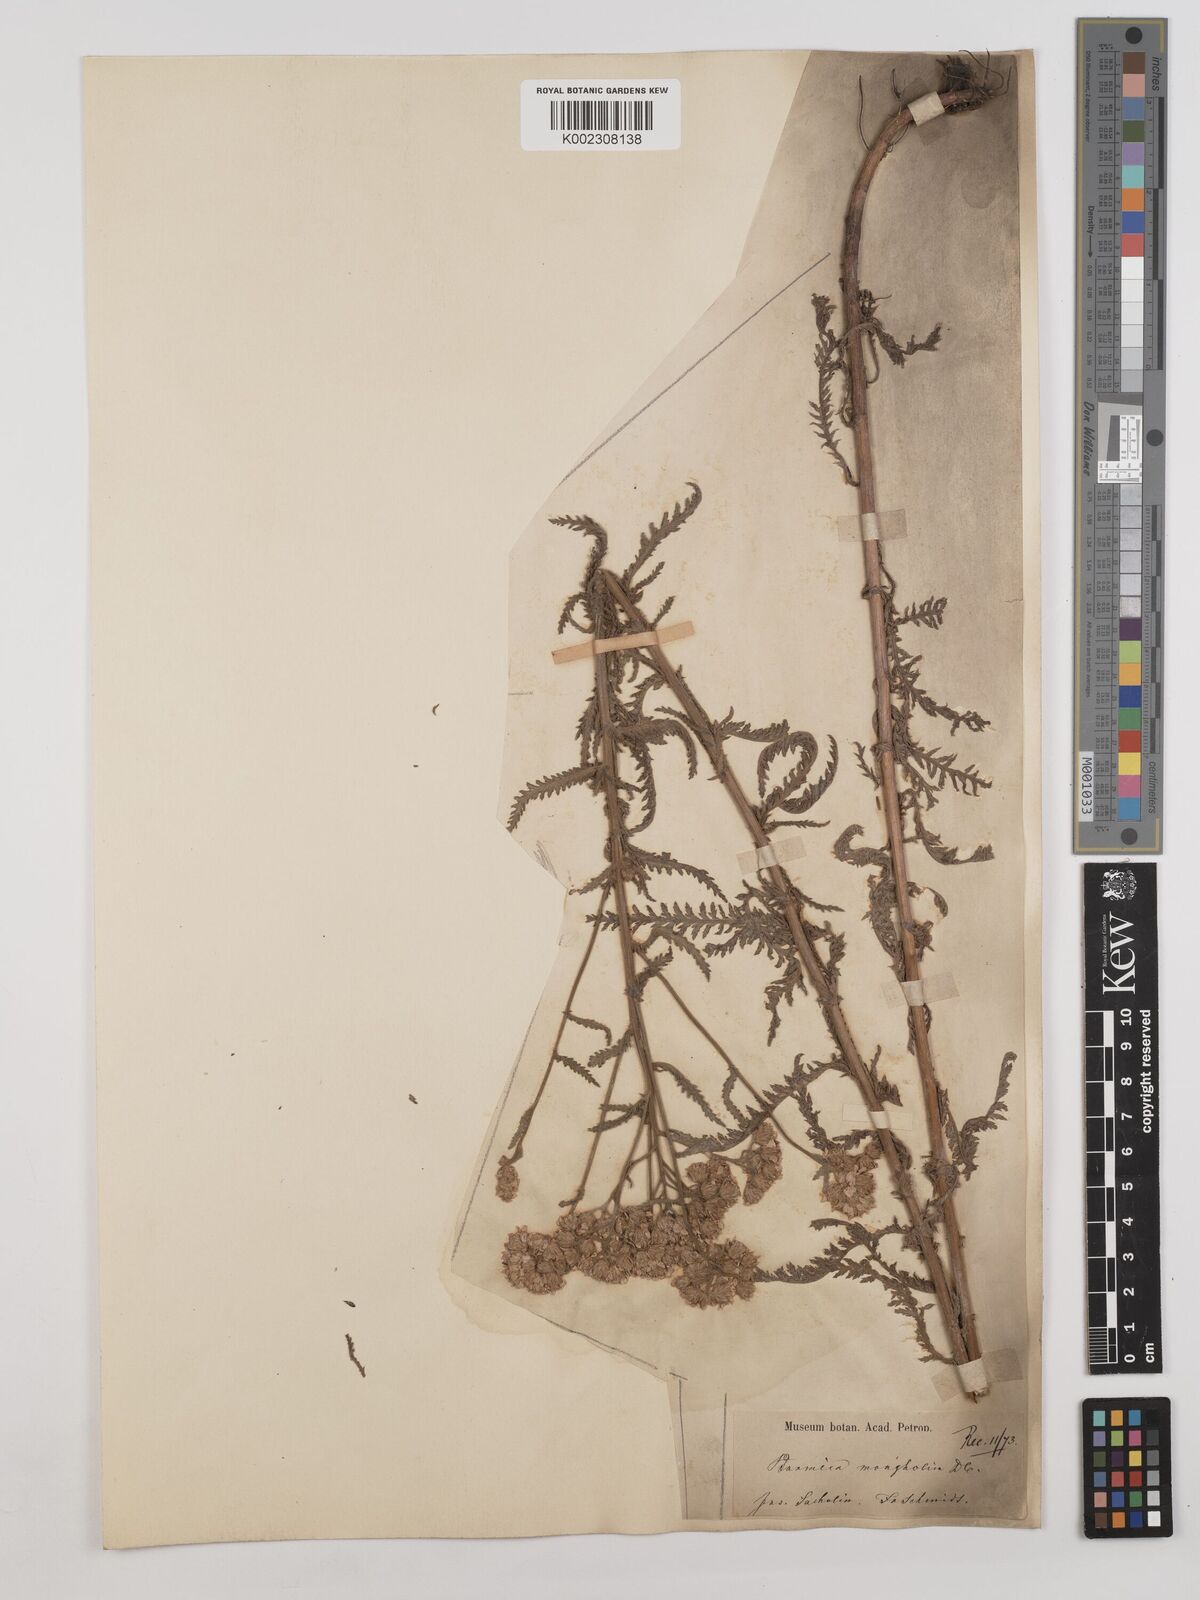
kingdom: Plantae
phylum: Tracheophyta
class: Magnoliopsida
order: Asterales
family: Asteraceae
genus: Achillea
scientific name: Achillea alpina
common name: Siberian yarrow
